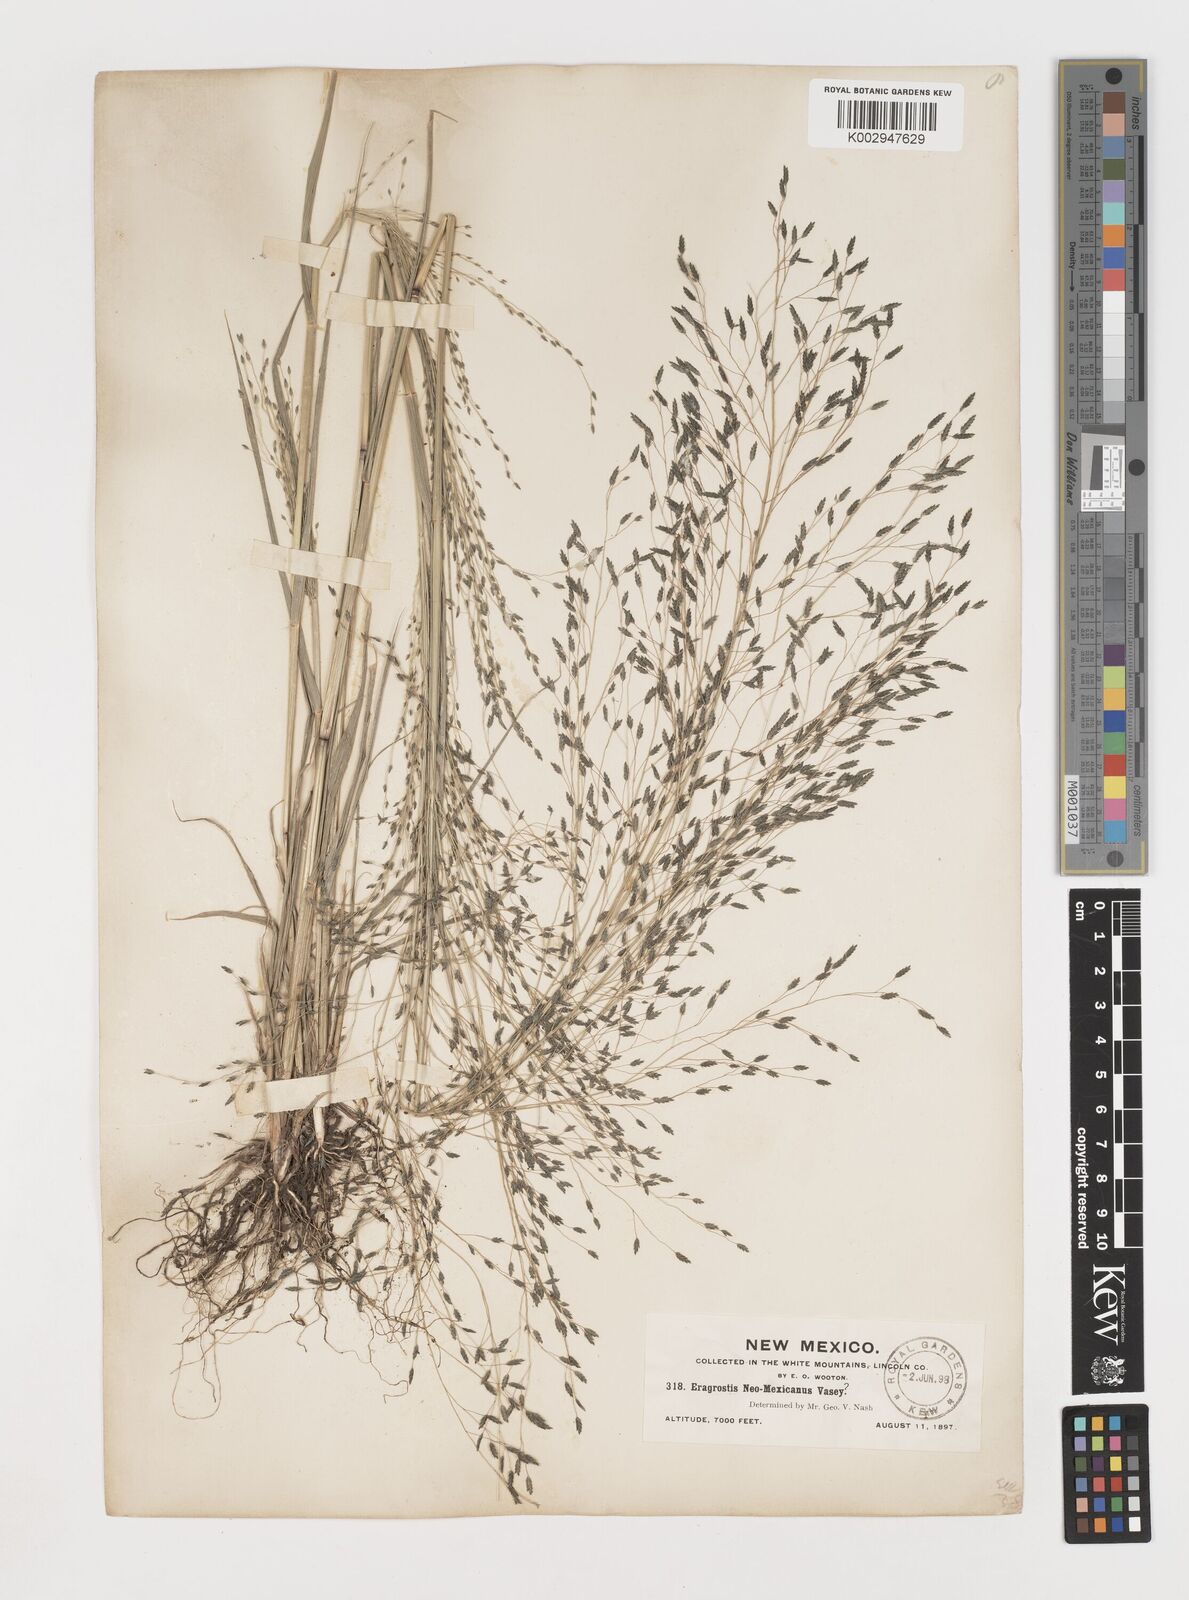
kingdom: Plantae
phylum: Tracheophyta
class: Liliopsida
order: Poales
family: Poaceae
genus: Eragrostis
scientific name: Eragrostis mexicana
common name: Mexican love grass
